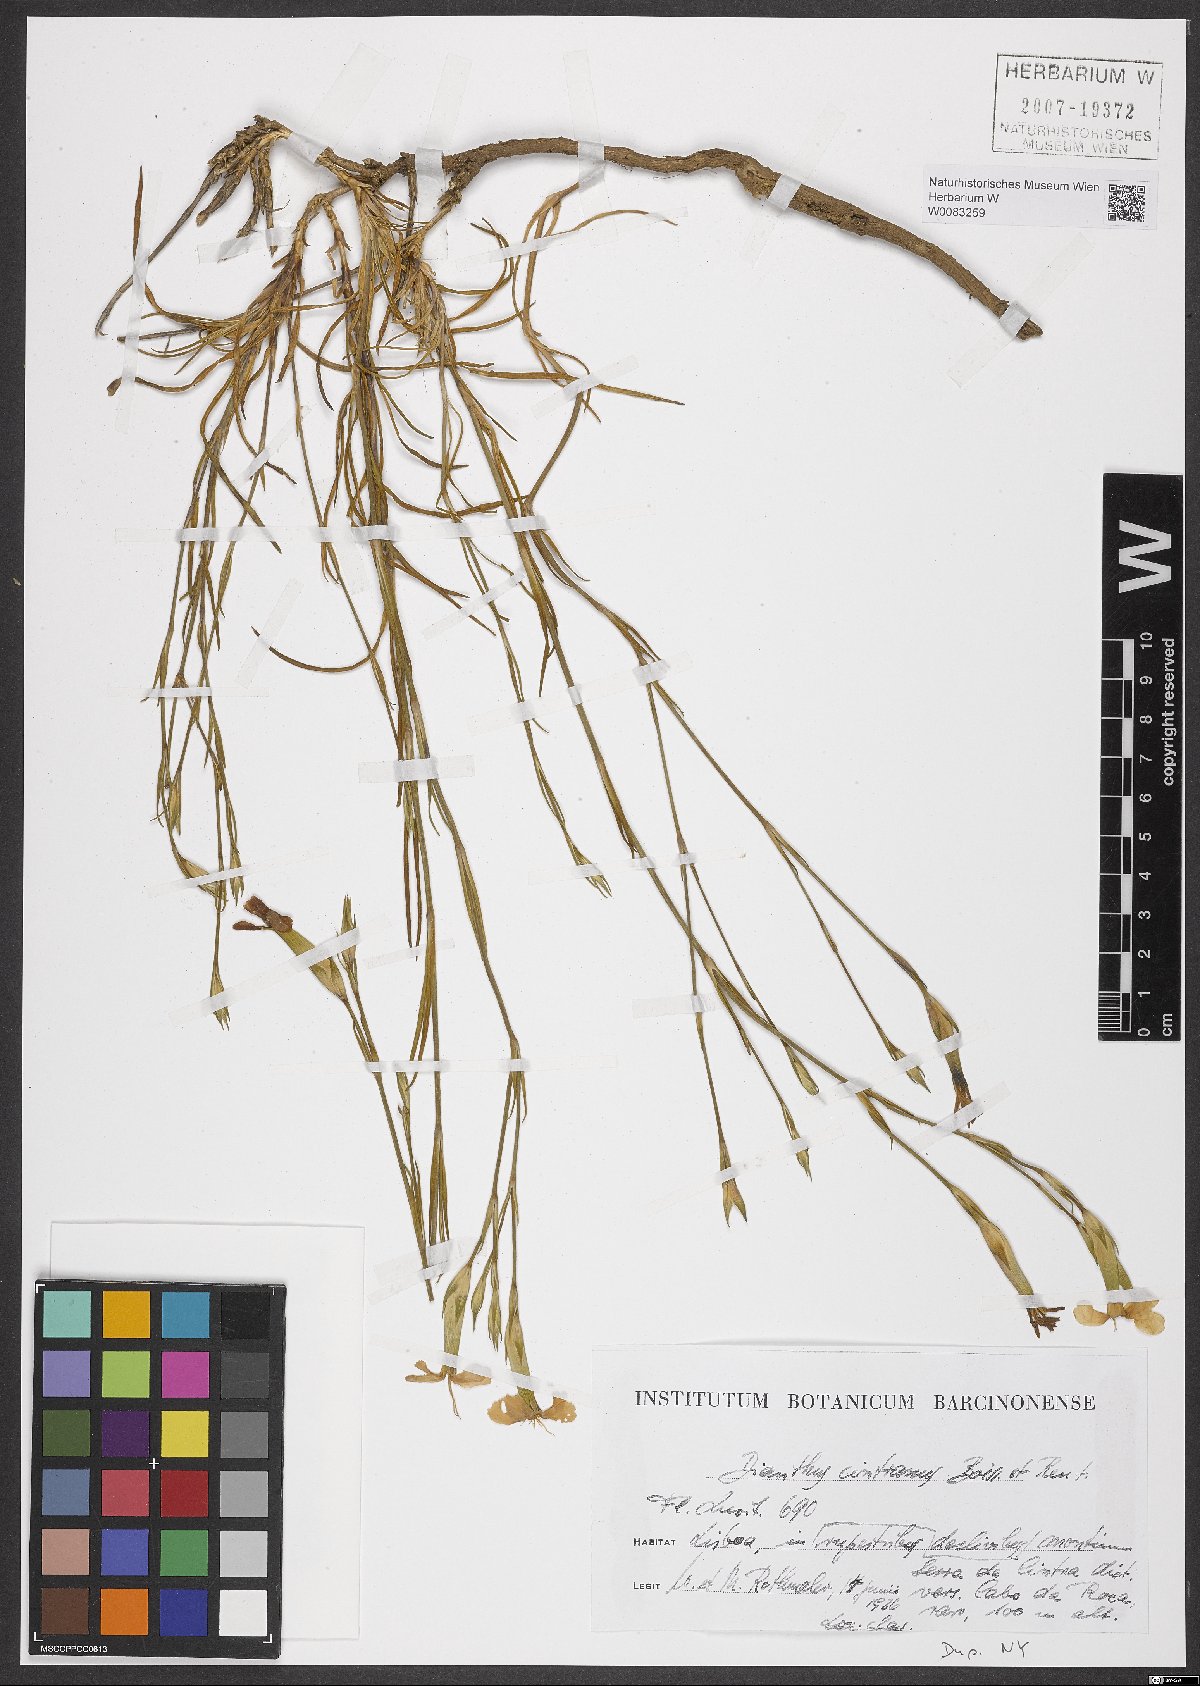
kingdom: Plantae
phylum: Tracheophyta
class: Magnoliopsida
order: Caryophyllales
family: Caryophyllaceae
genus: Dianthus
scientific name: Dianthus cintranus
